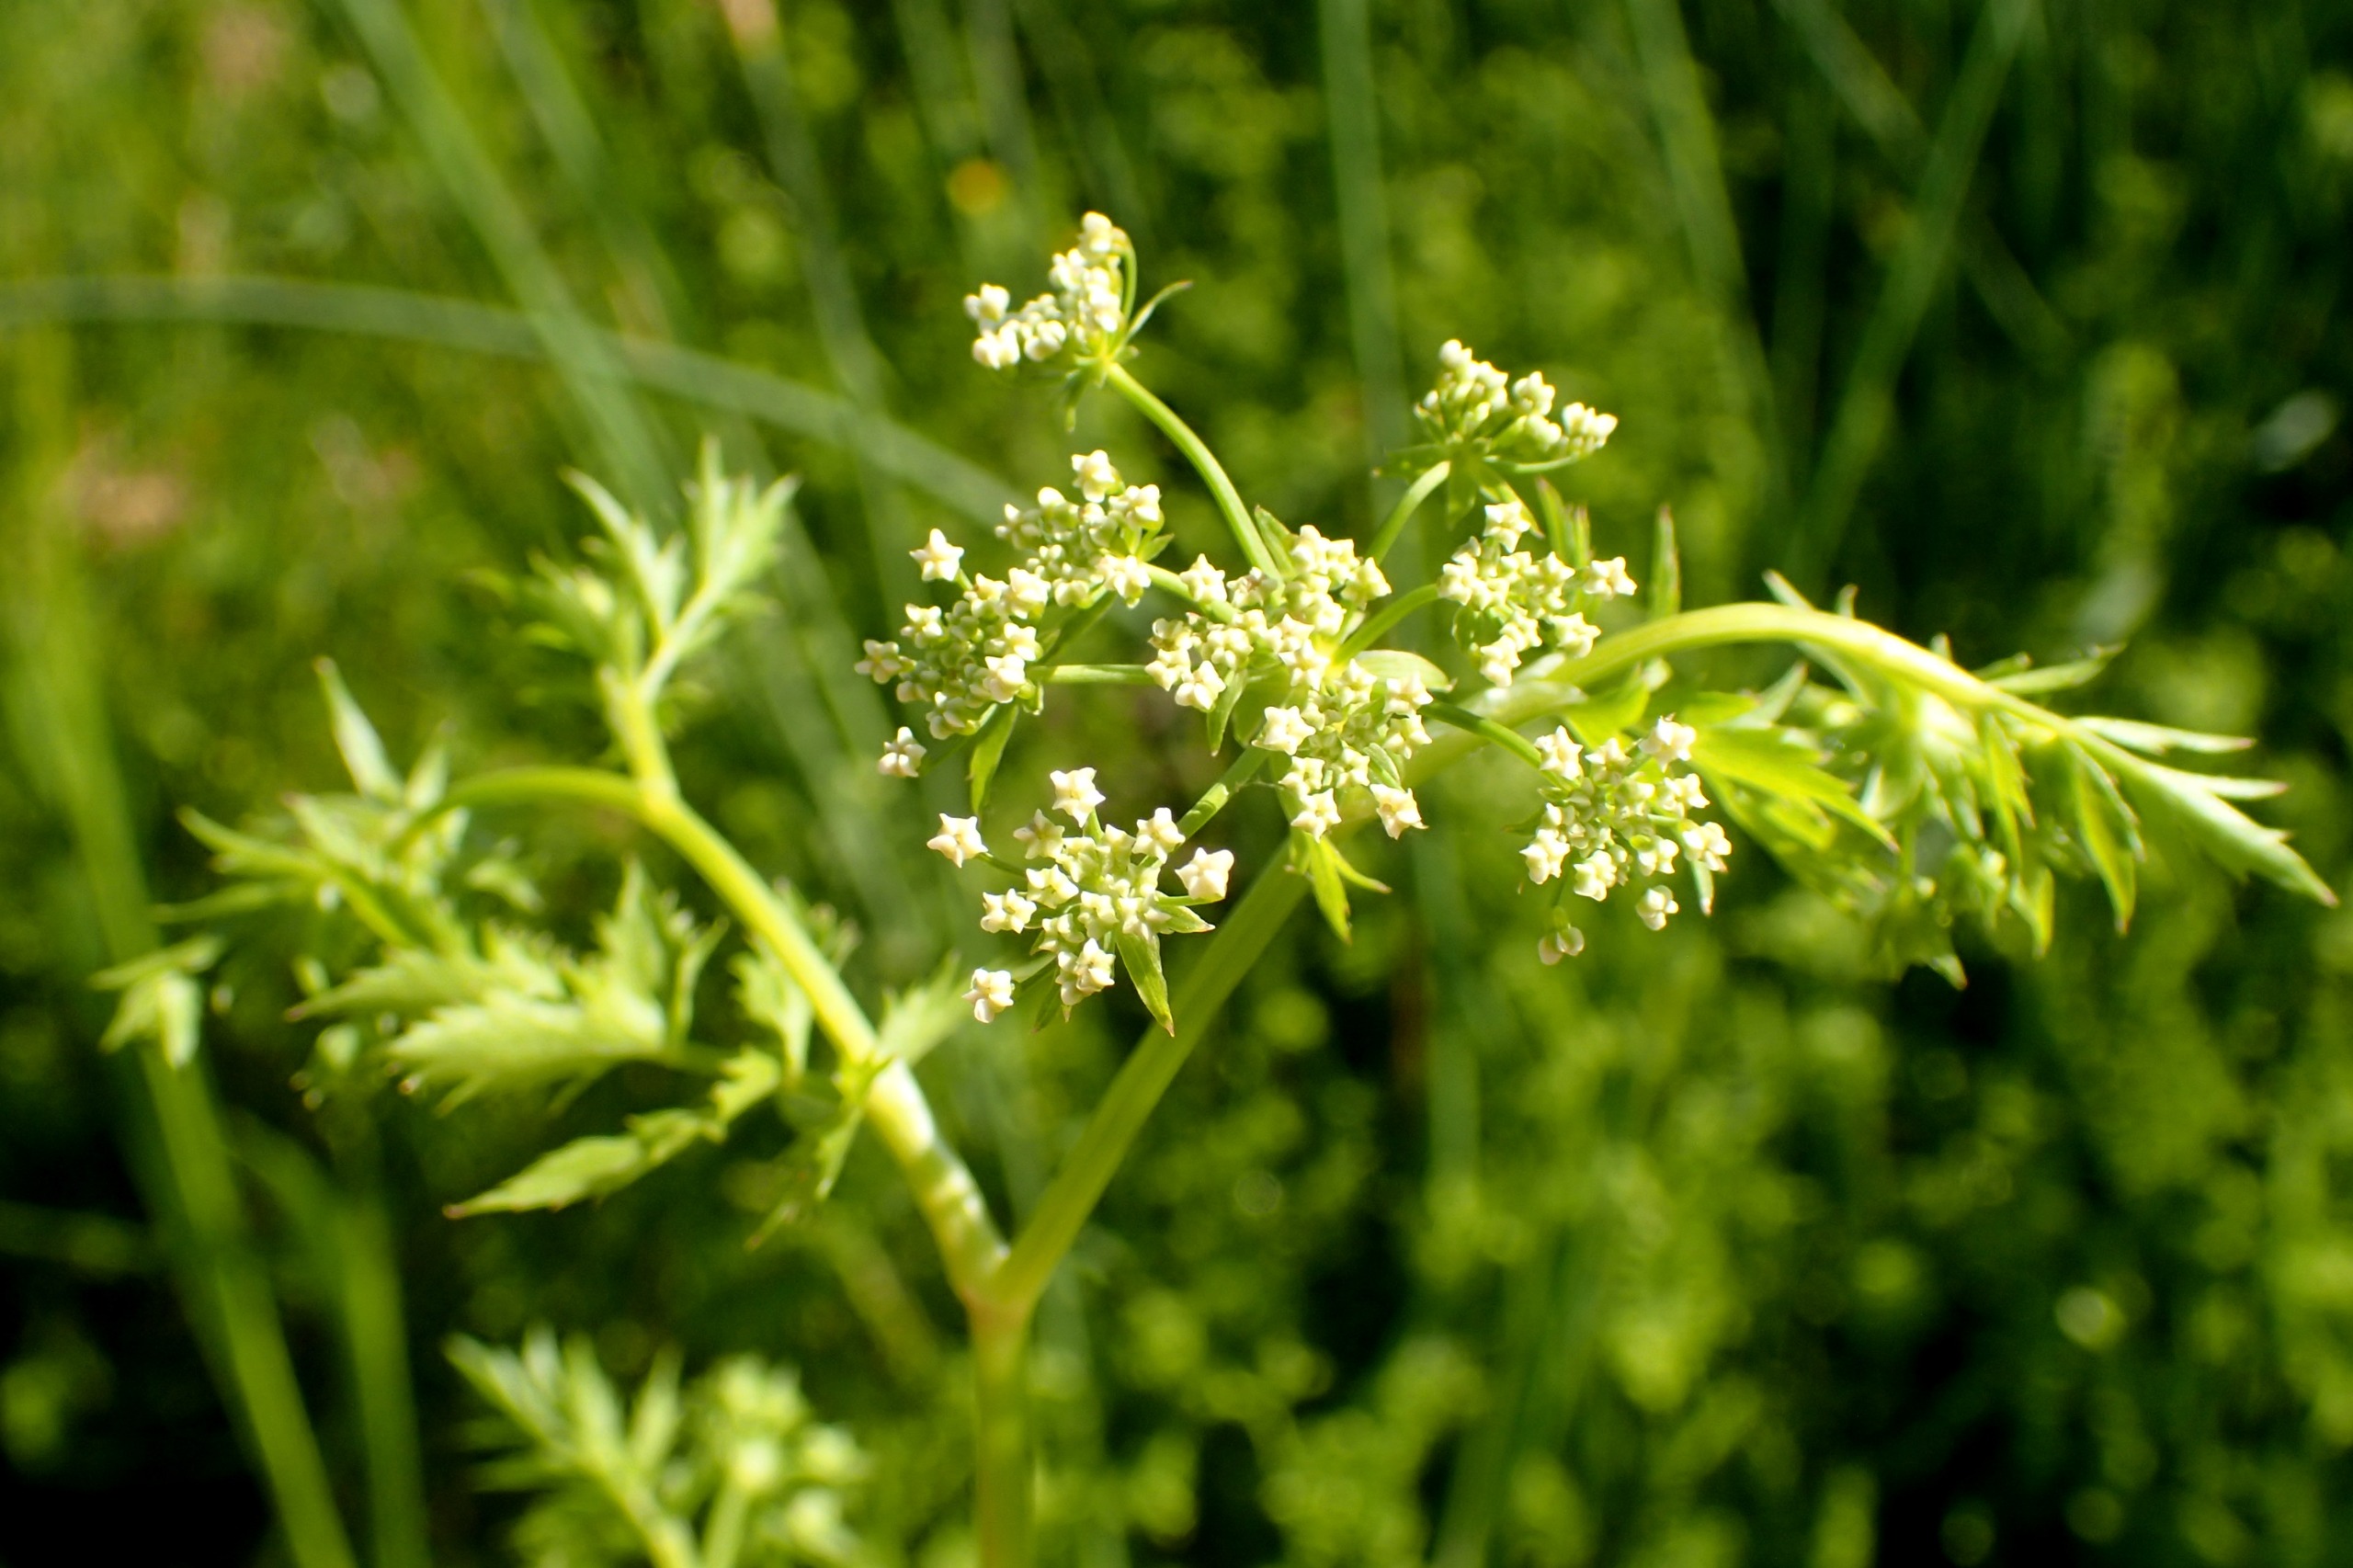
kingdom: Plantae
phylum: Tracheophyta
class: Magnoliopsida
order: Apiales
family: Apiaceae
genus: Berula
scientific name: Berula erecta
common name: Sideskærm
